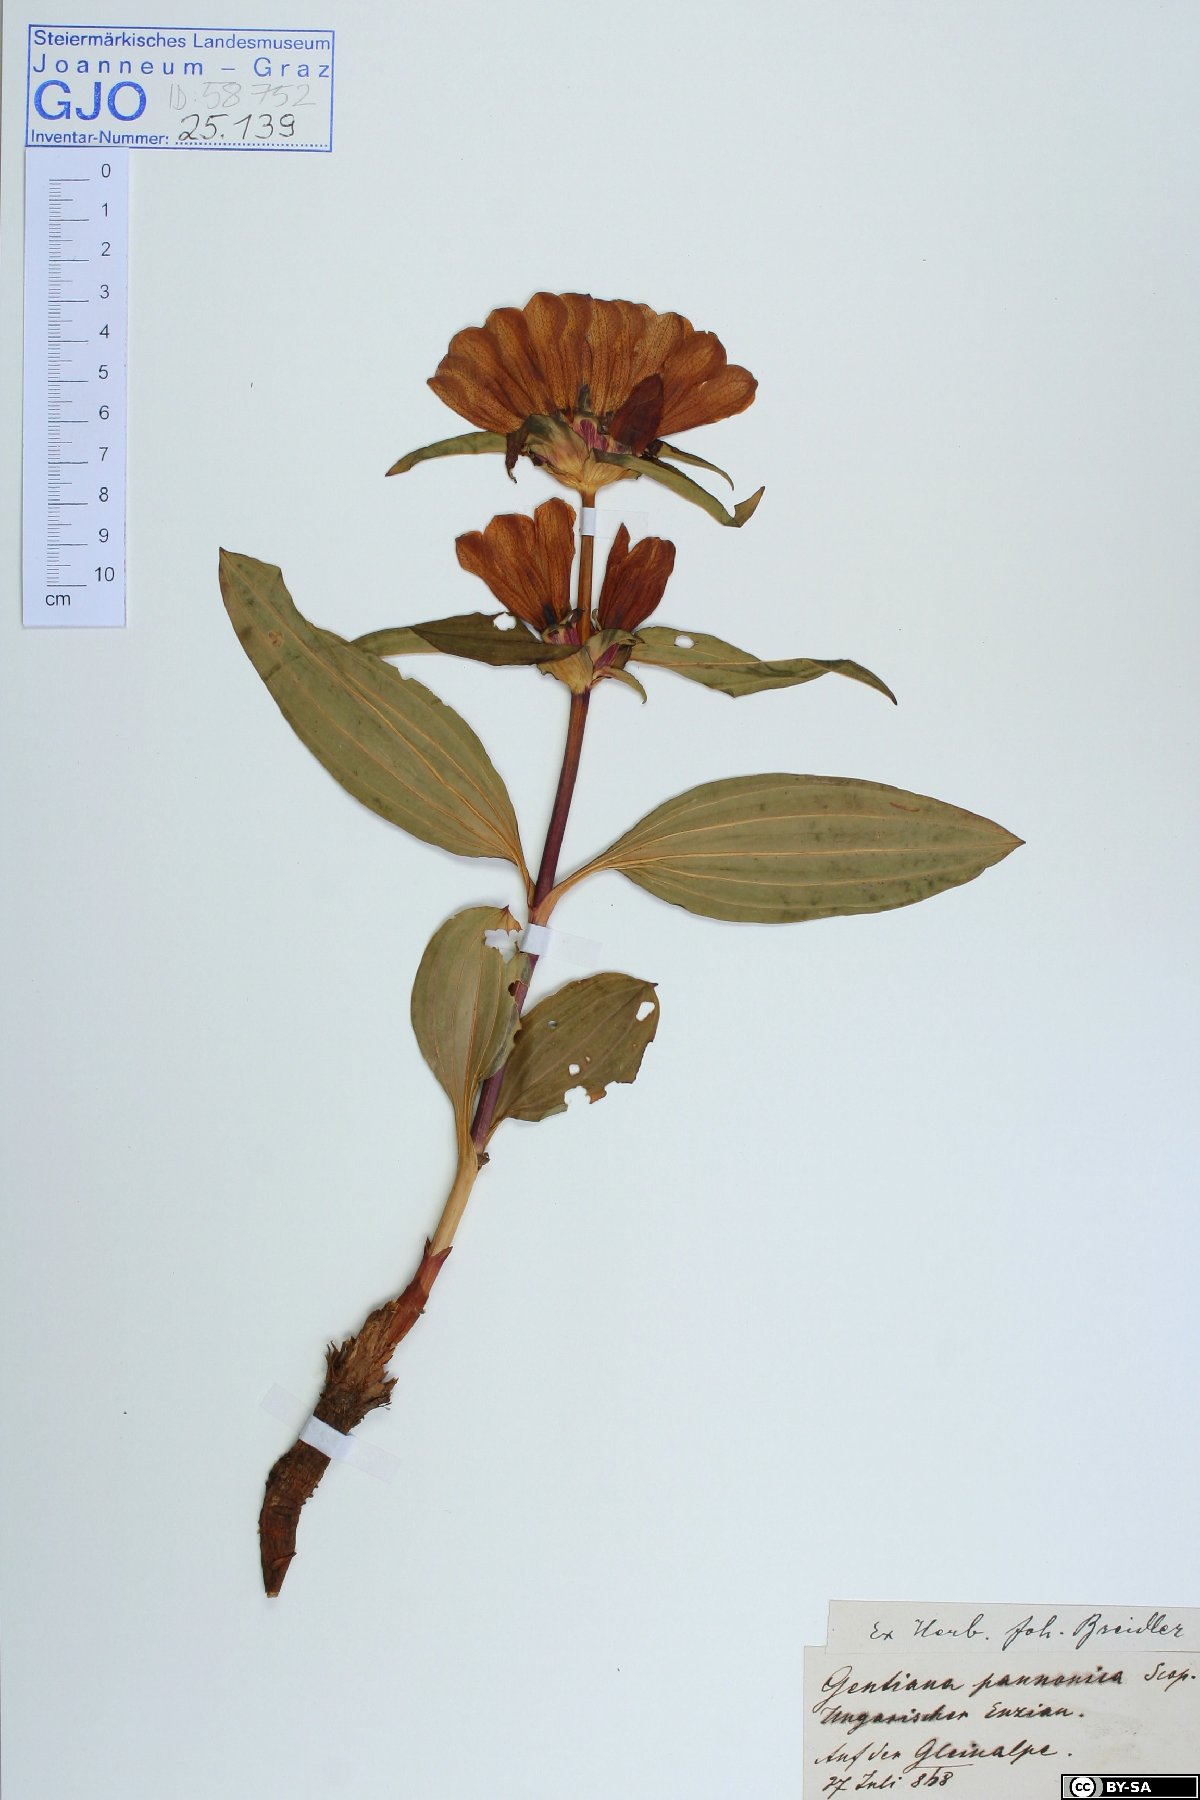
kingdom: Plantae
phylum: Tracheophyta
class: Magnoliopsida
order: Gentianales
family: Gentianaceae
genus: Gentiana
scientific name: Gentiana pannonica
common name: Hungarian gentian
